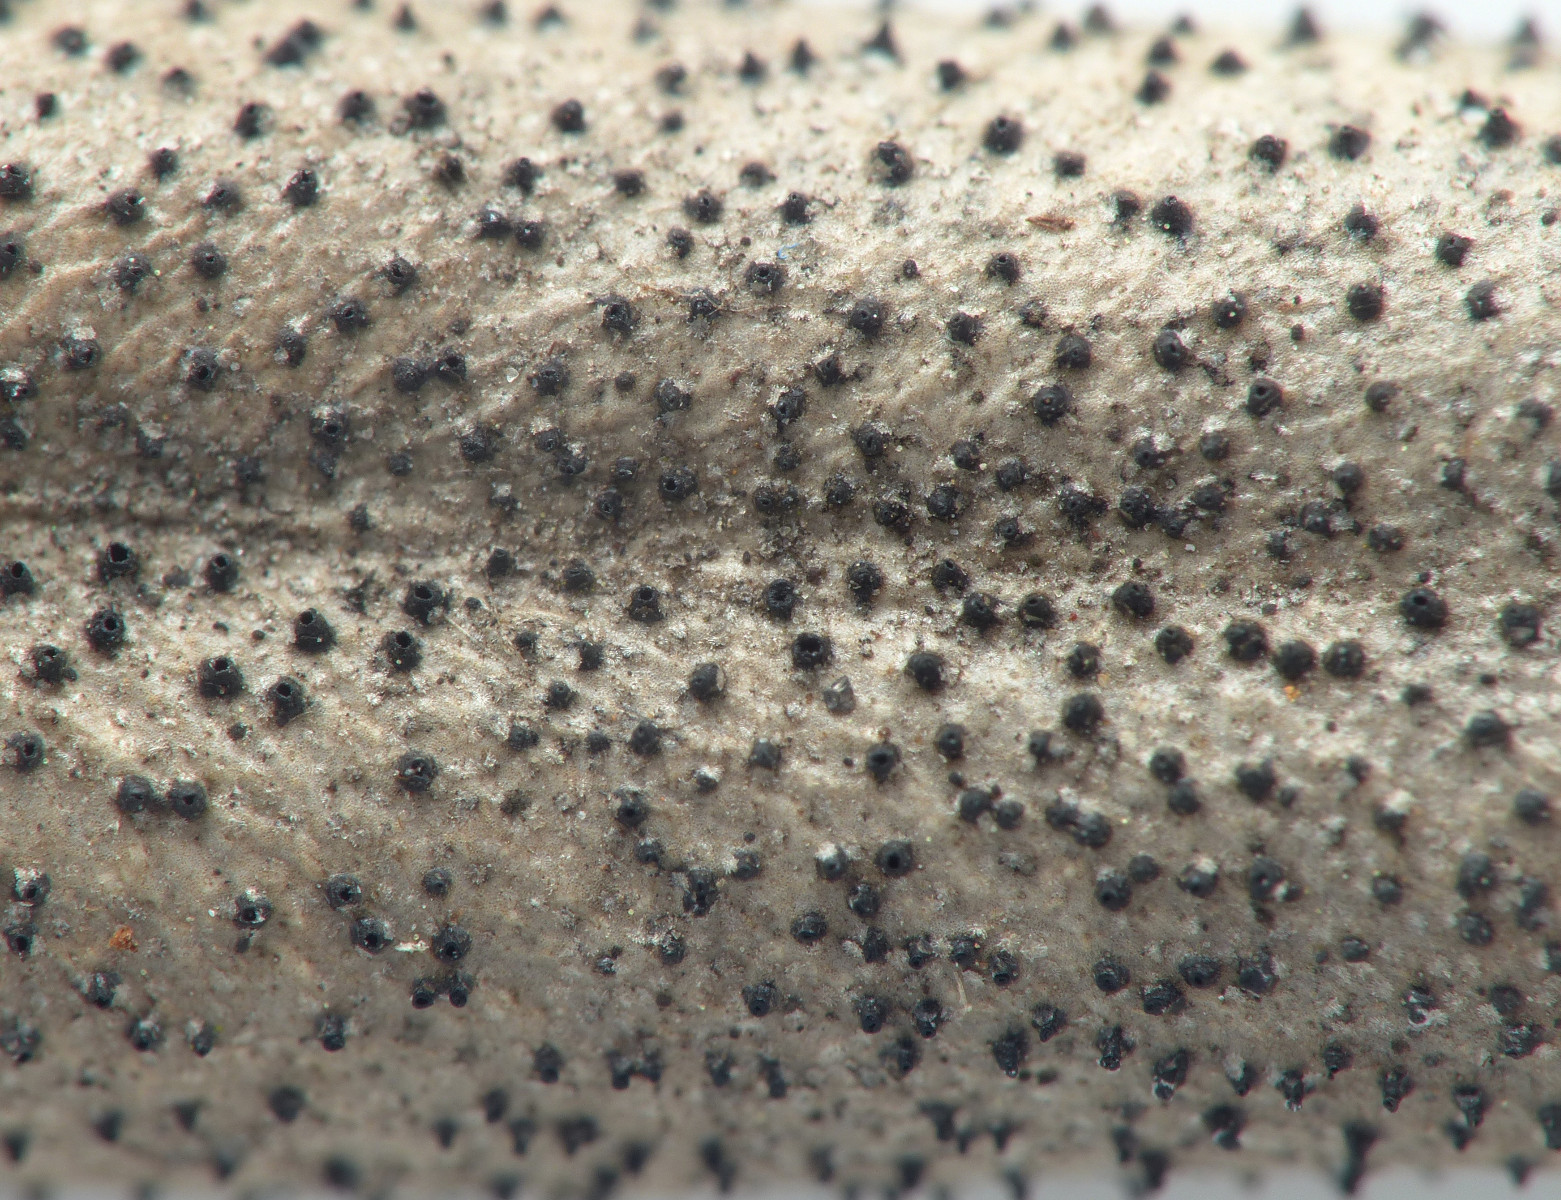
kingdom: Fungi
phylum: Ascomycota
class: Dothideomycetes
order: Botryosphaeriales
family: Botryosphaeriaceae
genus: Dothiora
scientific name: Dothiora oleae
